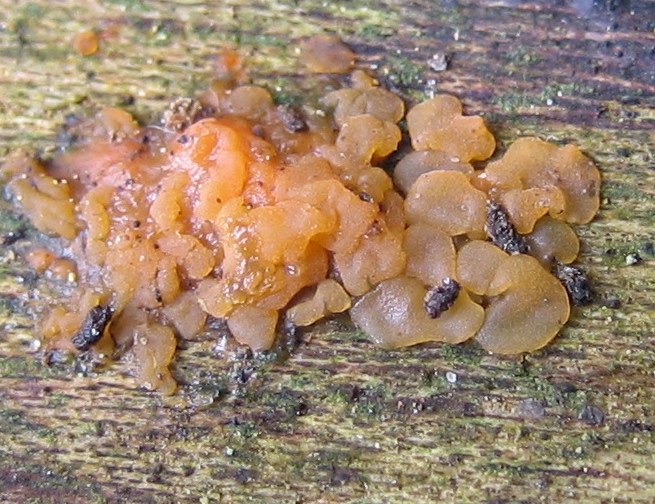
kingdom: Fungi
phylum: Basidiomycota
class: Dacrymycetes
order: Dacrymycetales
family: Dacrymycetaceae
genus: Dacrymyces
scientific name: Dacrymyces
